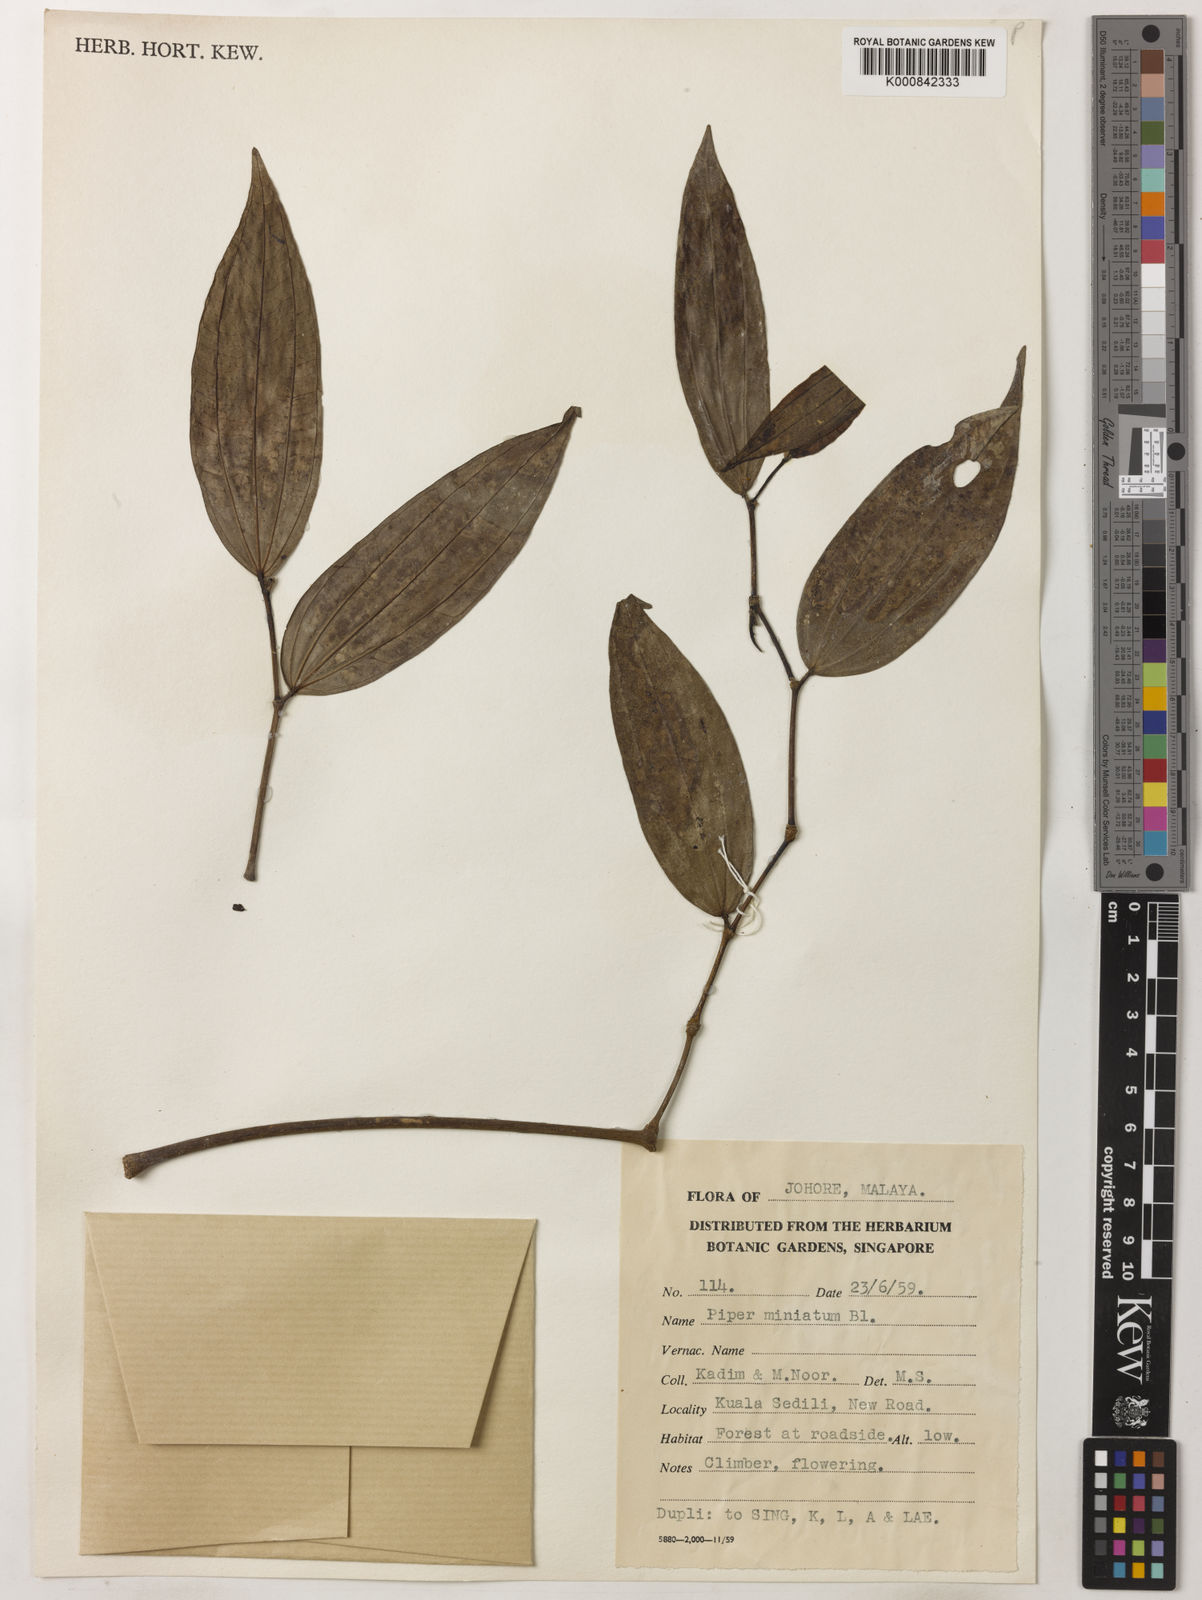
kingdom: Plantae
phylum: Tracheophyta
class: Magnoliopsida
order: Piperales
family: Piperaceae
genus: Piper
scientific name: Piper macropiper
